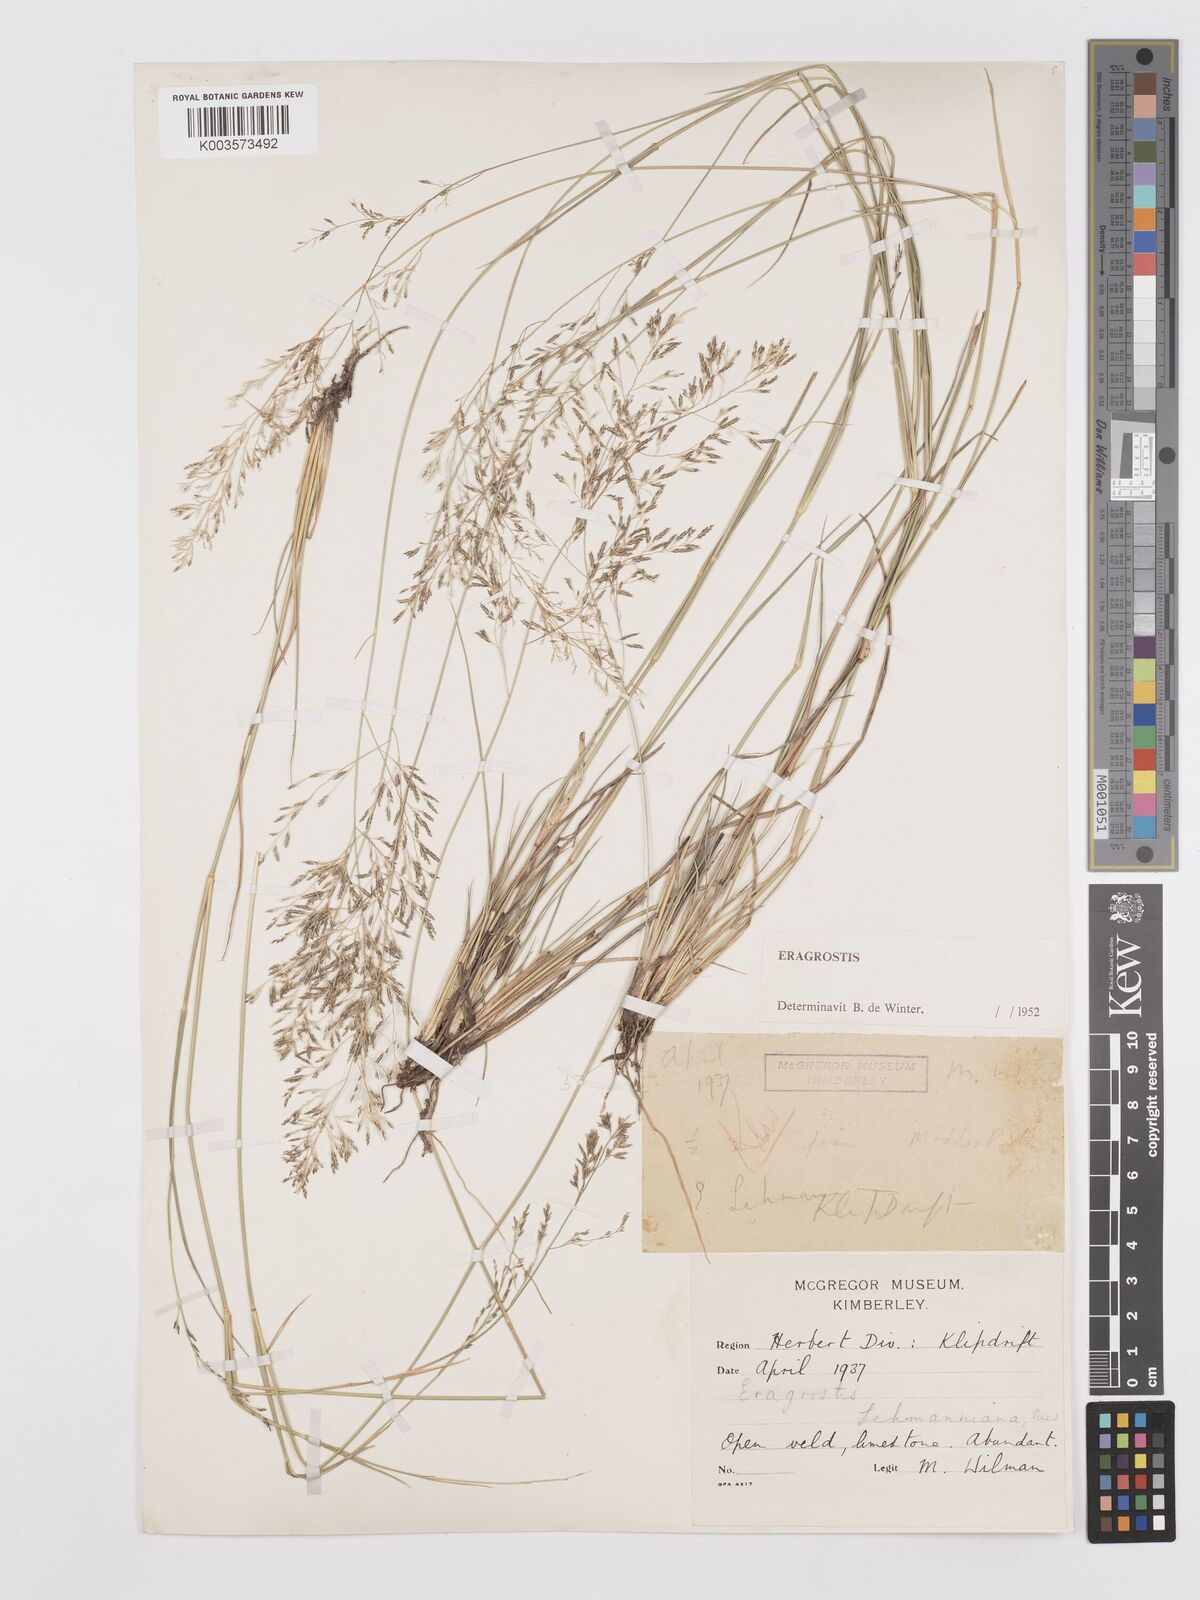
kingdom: Plantae
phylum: Tracheophyta
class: Liliopsida
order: Poales
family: Poaceae
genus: Eragrostis
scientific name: Eragrostis lehmanniana
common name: Lehmann lovegrass
